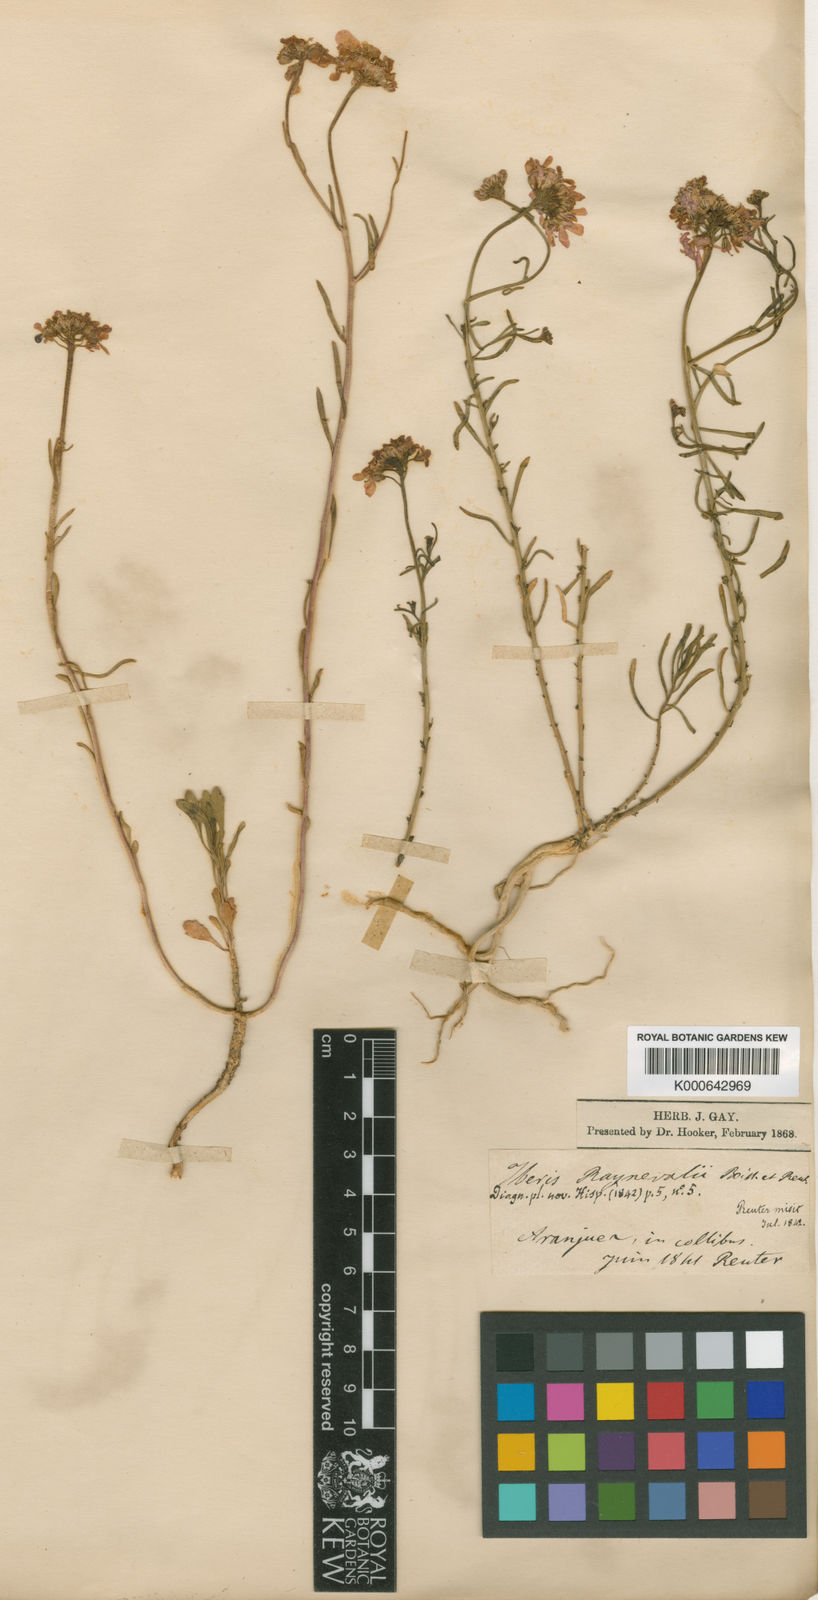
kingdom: Plantae
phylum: Tracheophyta
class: Magnoliopsida
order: Brassicales
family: Brassicaceae
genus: Iberis
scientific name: Iberis linifolia
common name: Candytuft
